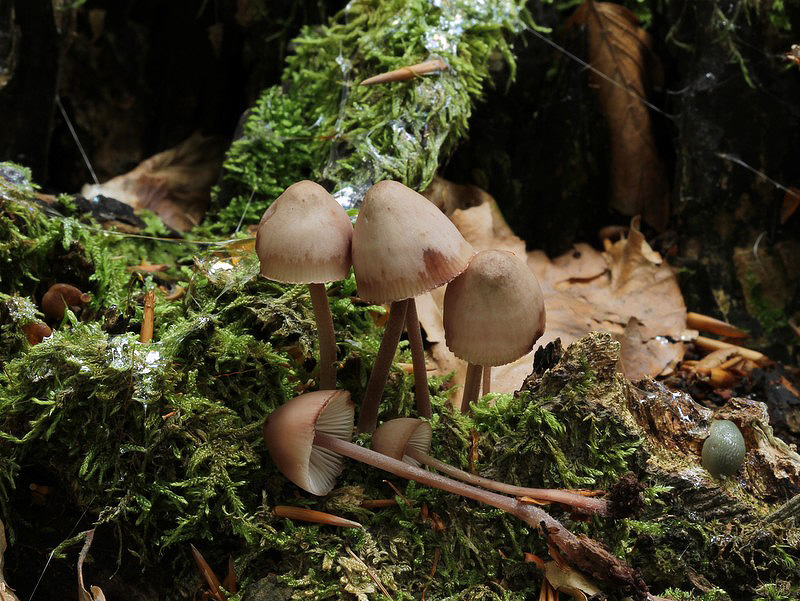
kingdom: Fungi
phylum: Basidiomycota
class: Agaricomycetes
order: Agaricales
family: Mycenaceae
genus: Mycena
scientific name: Mycena haematopus
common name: blødende huesvamp
